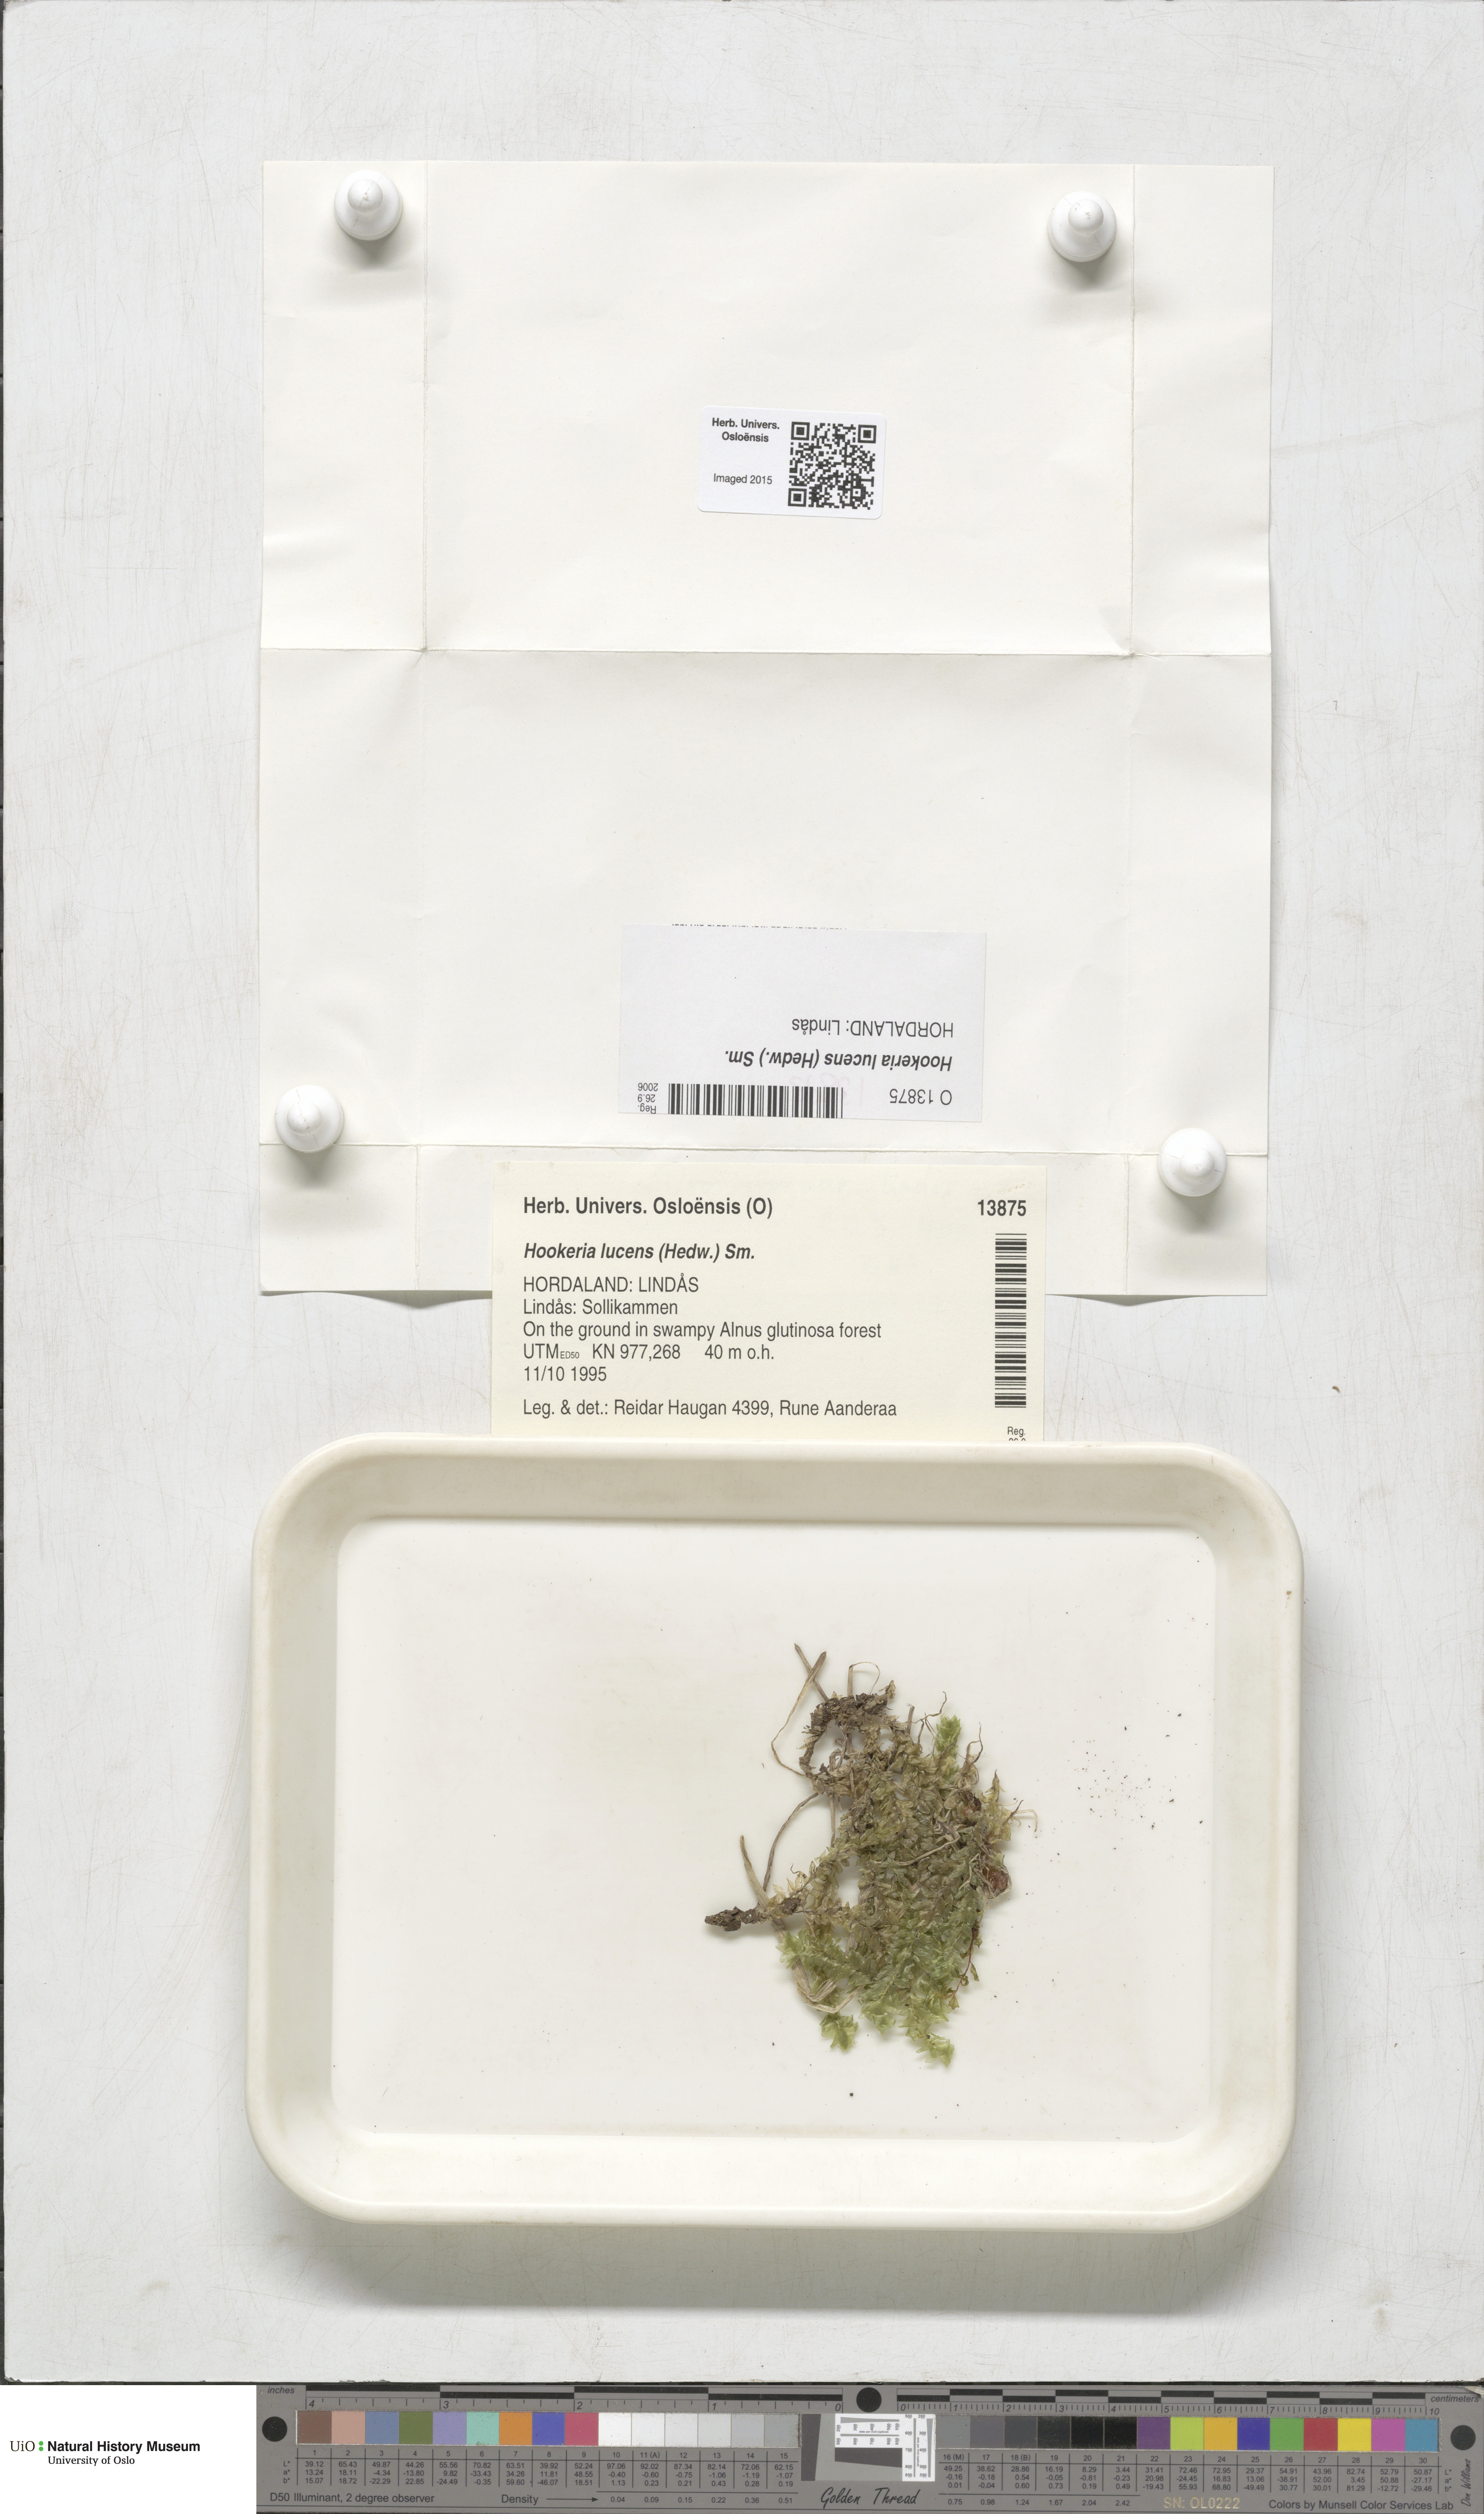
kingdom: Plantae
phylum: Bryophyta
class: Bryopsida
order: Hookeriales
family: Hookeriaceae
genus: Hookeria
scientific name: Hookeria lucens
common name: Shining hookeria
